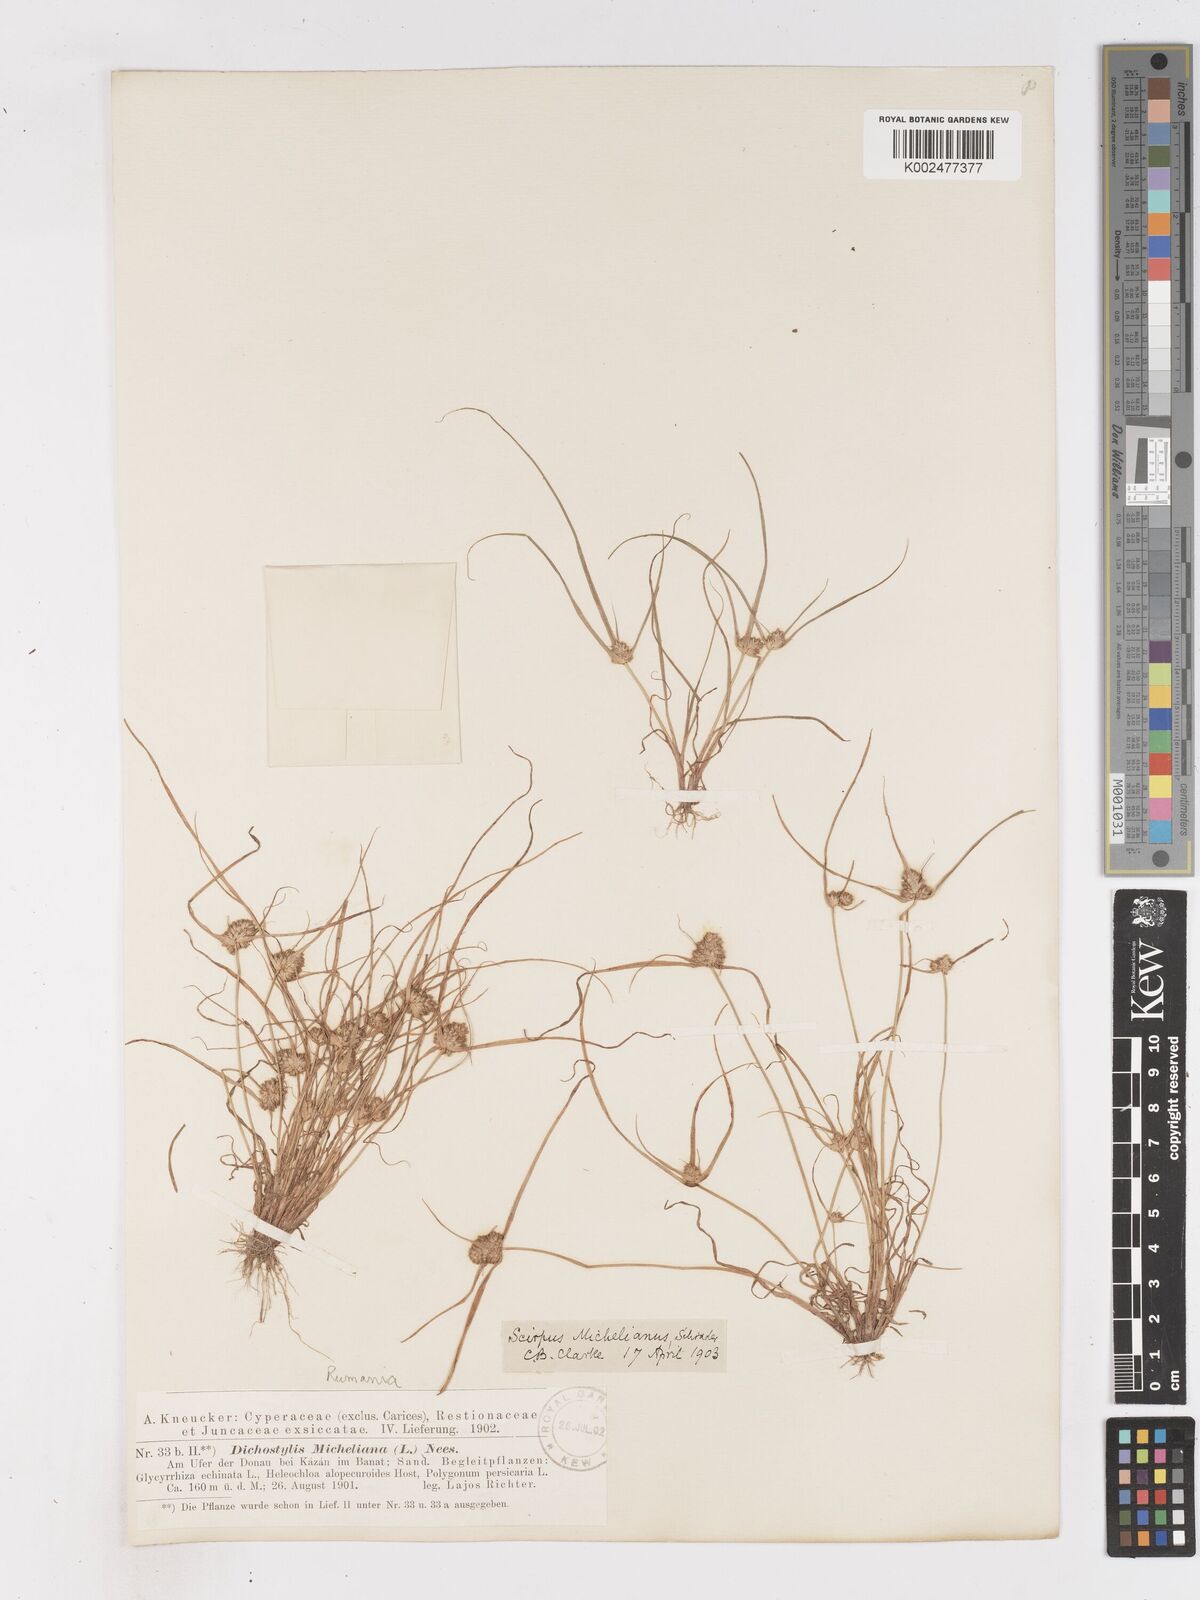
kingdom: Plantae
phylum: Tracheophyta
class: Liliopsida
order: Poales
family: Cyperaceae
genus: Cyperus
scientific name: Cyperus michelianus
